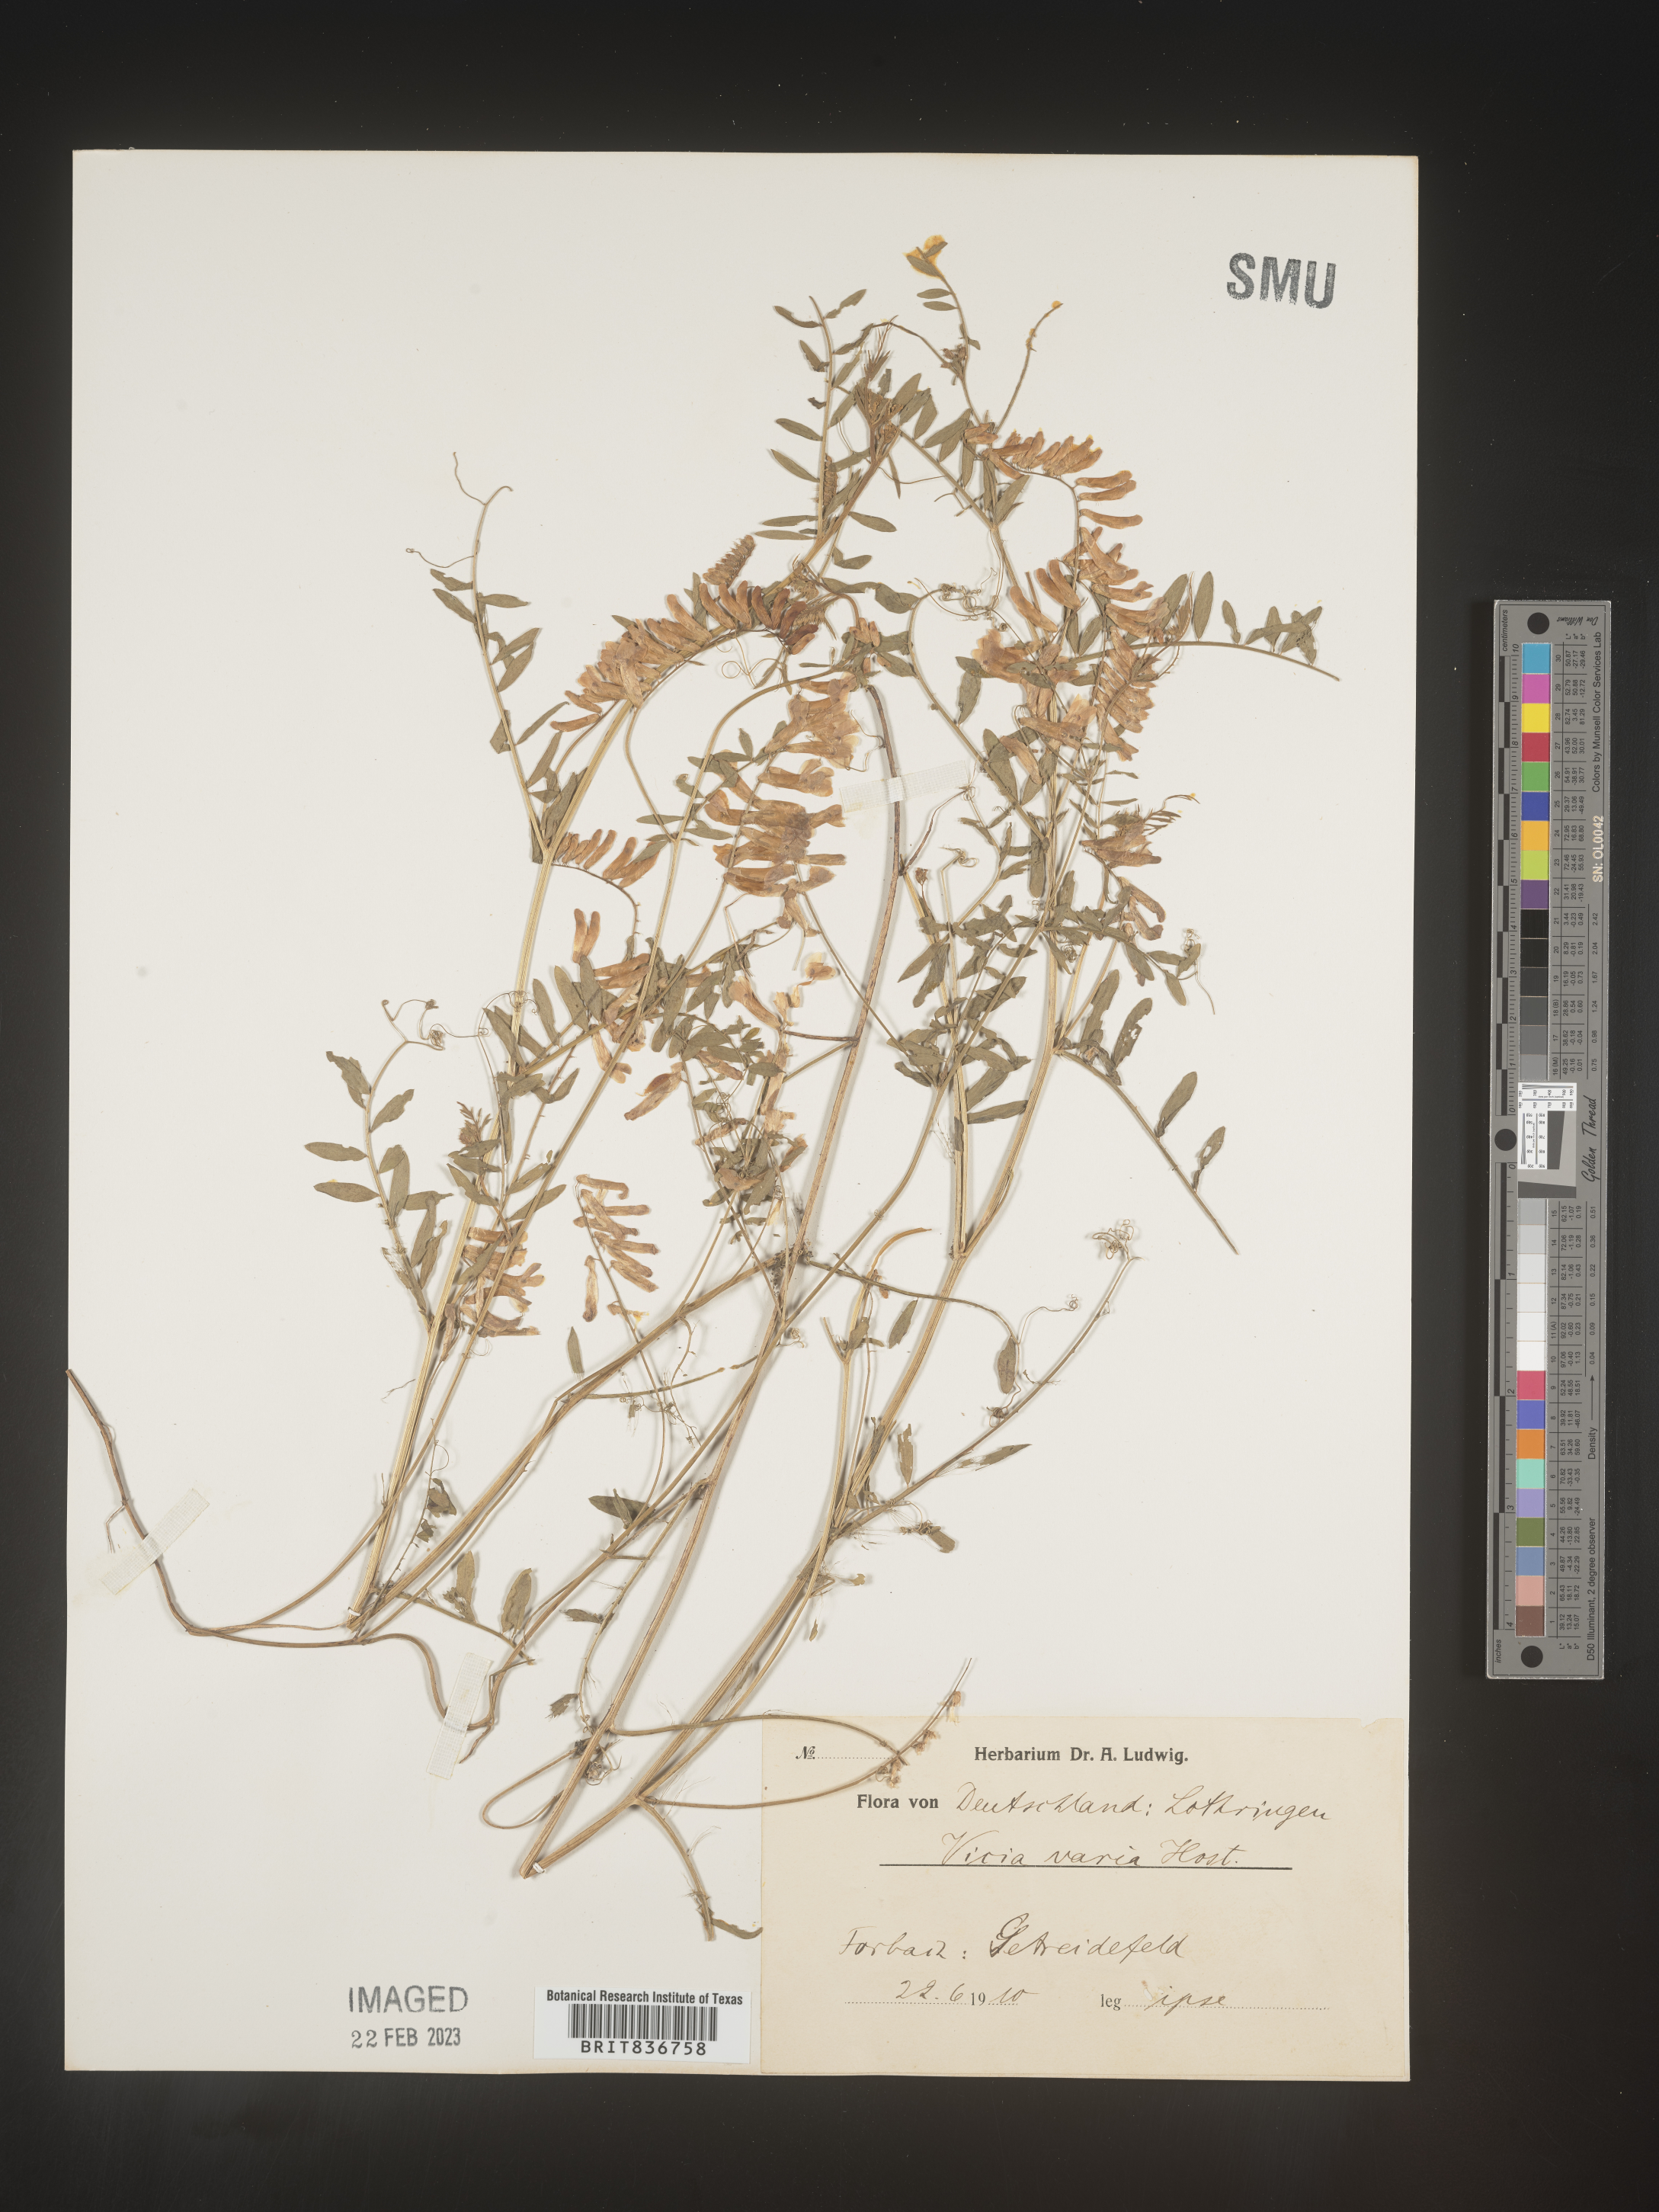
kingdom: Plantae
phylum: Tracheophyta
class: Magnoliopsida
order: Fabales
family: Fabaceae
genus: Vicia
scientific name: Vicia
